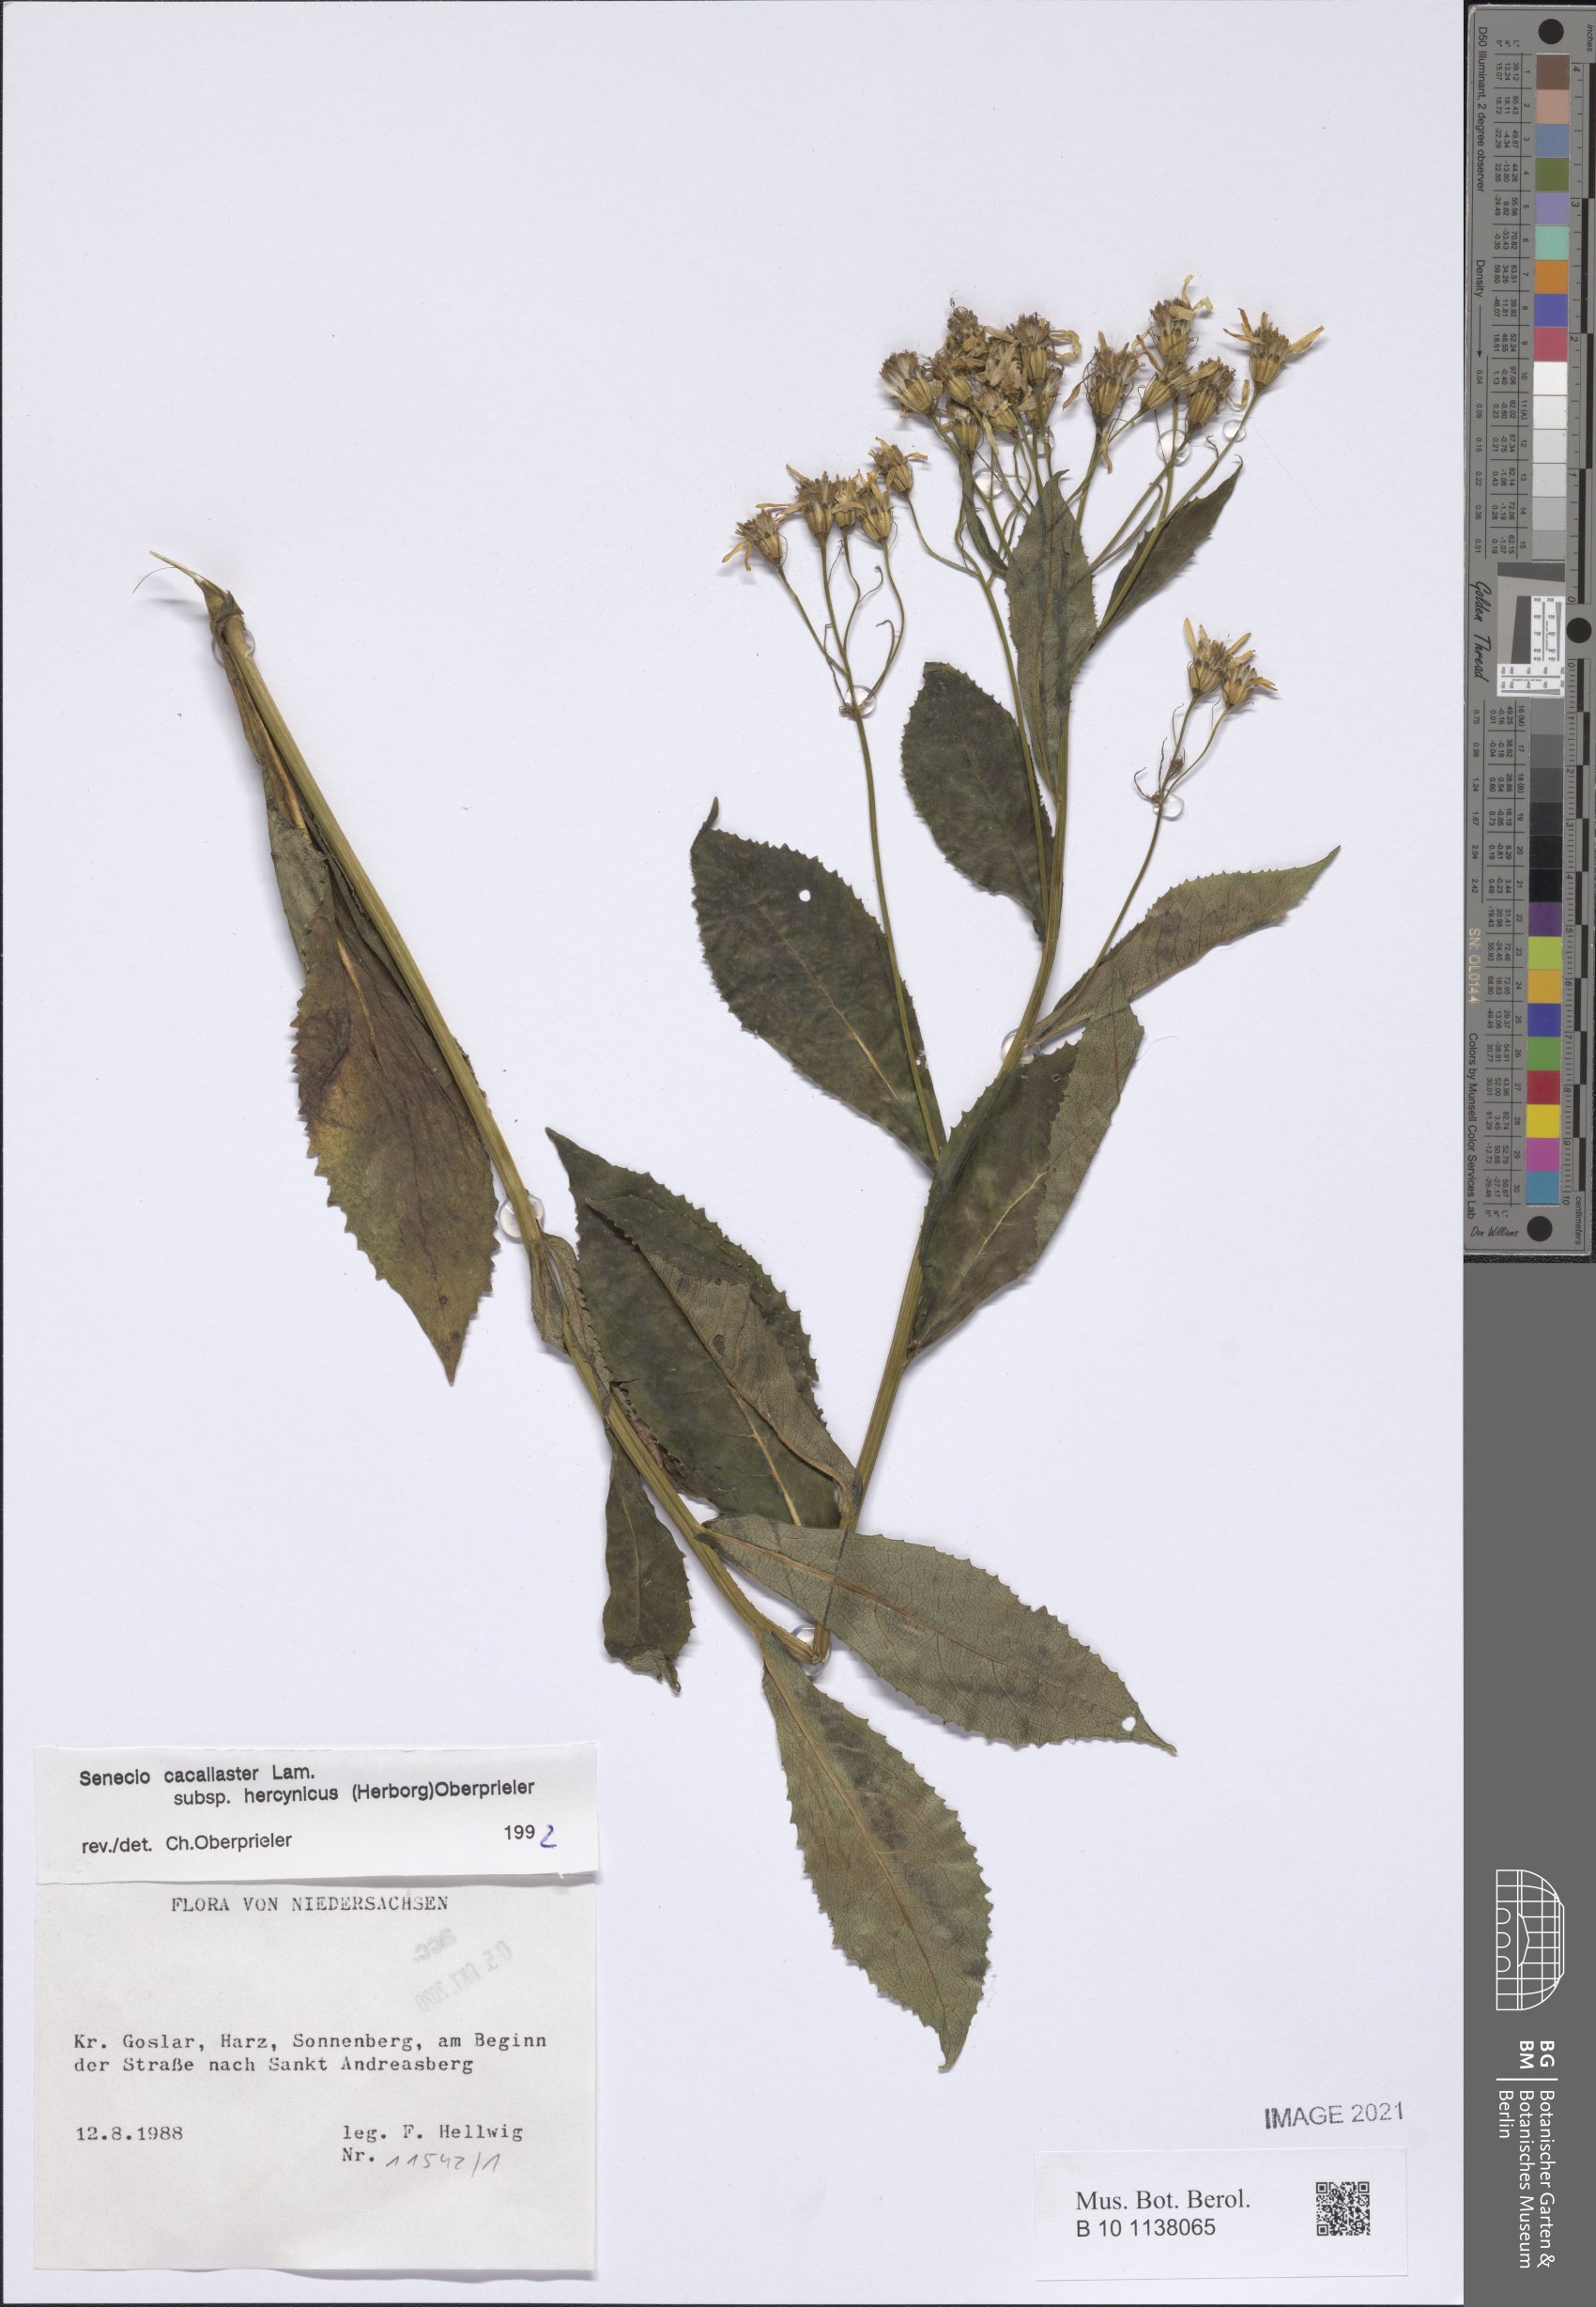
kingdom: Plantae
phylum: Tracheophyta
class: Magnoliopsida
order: Asterales
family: Asteraceae
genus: Senecio
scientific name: Senecio hercynicus
